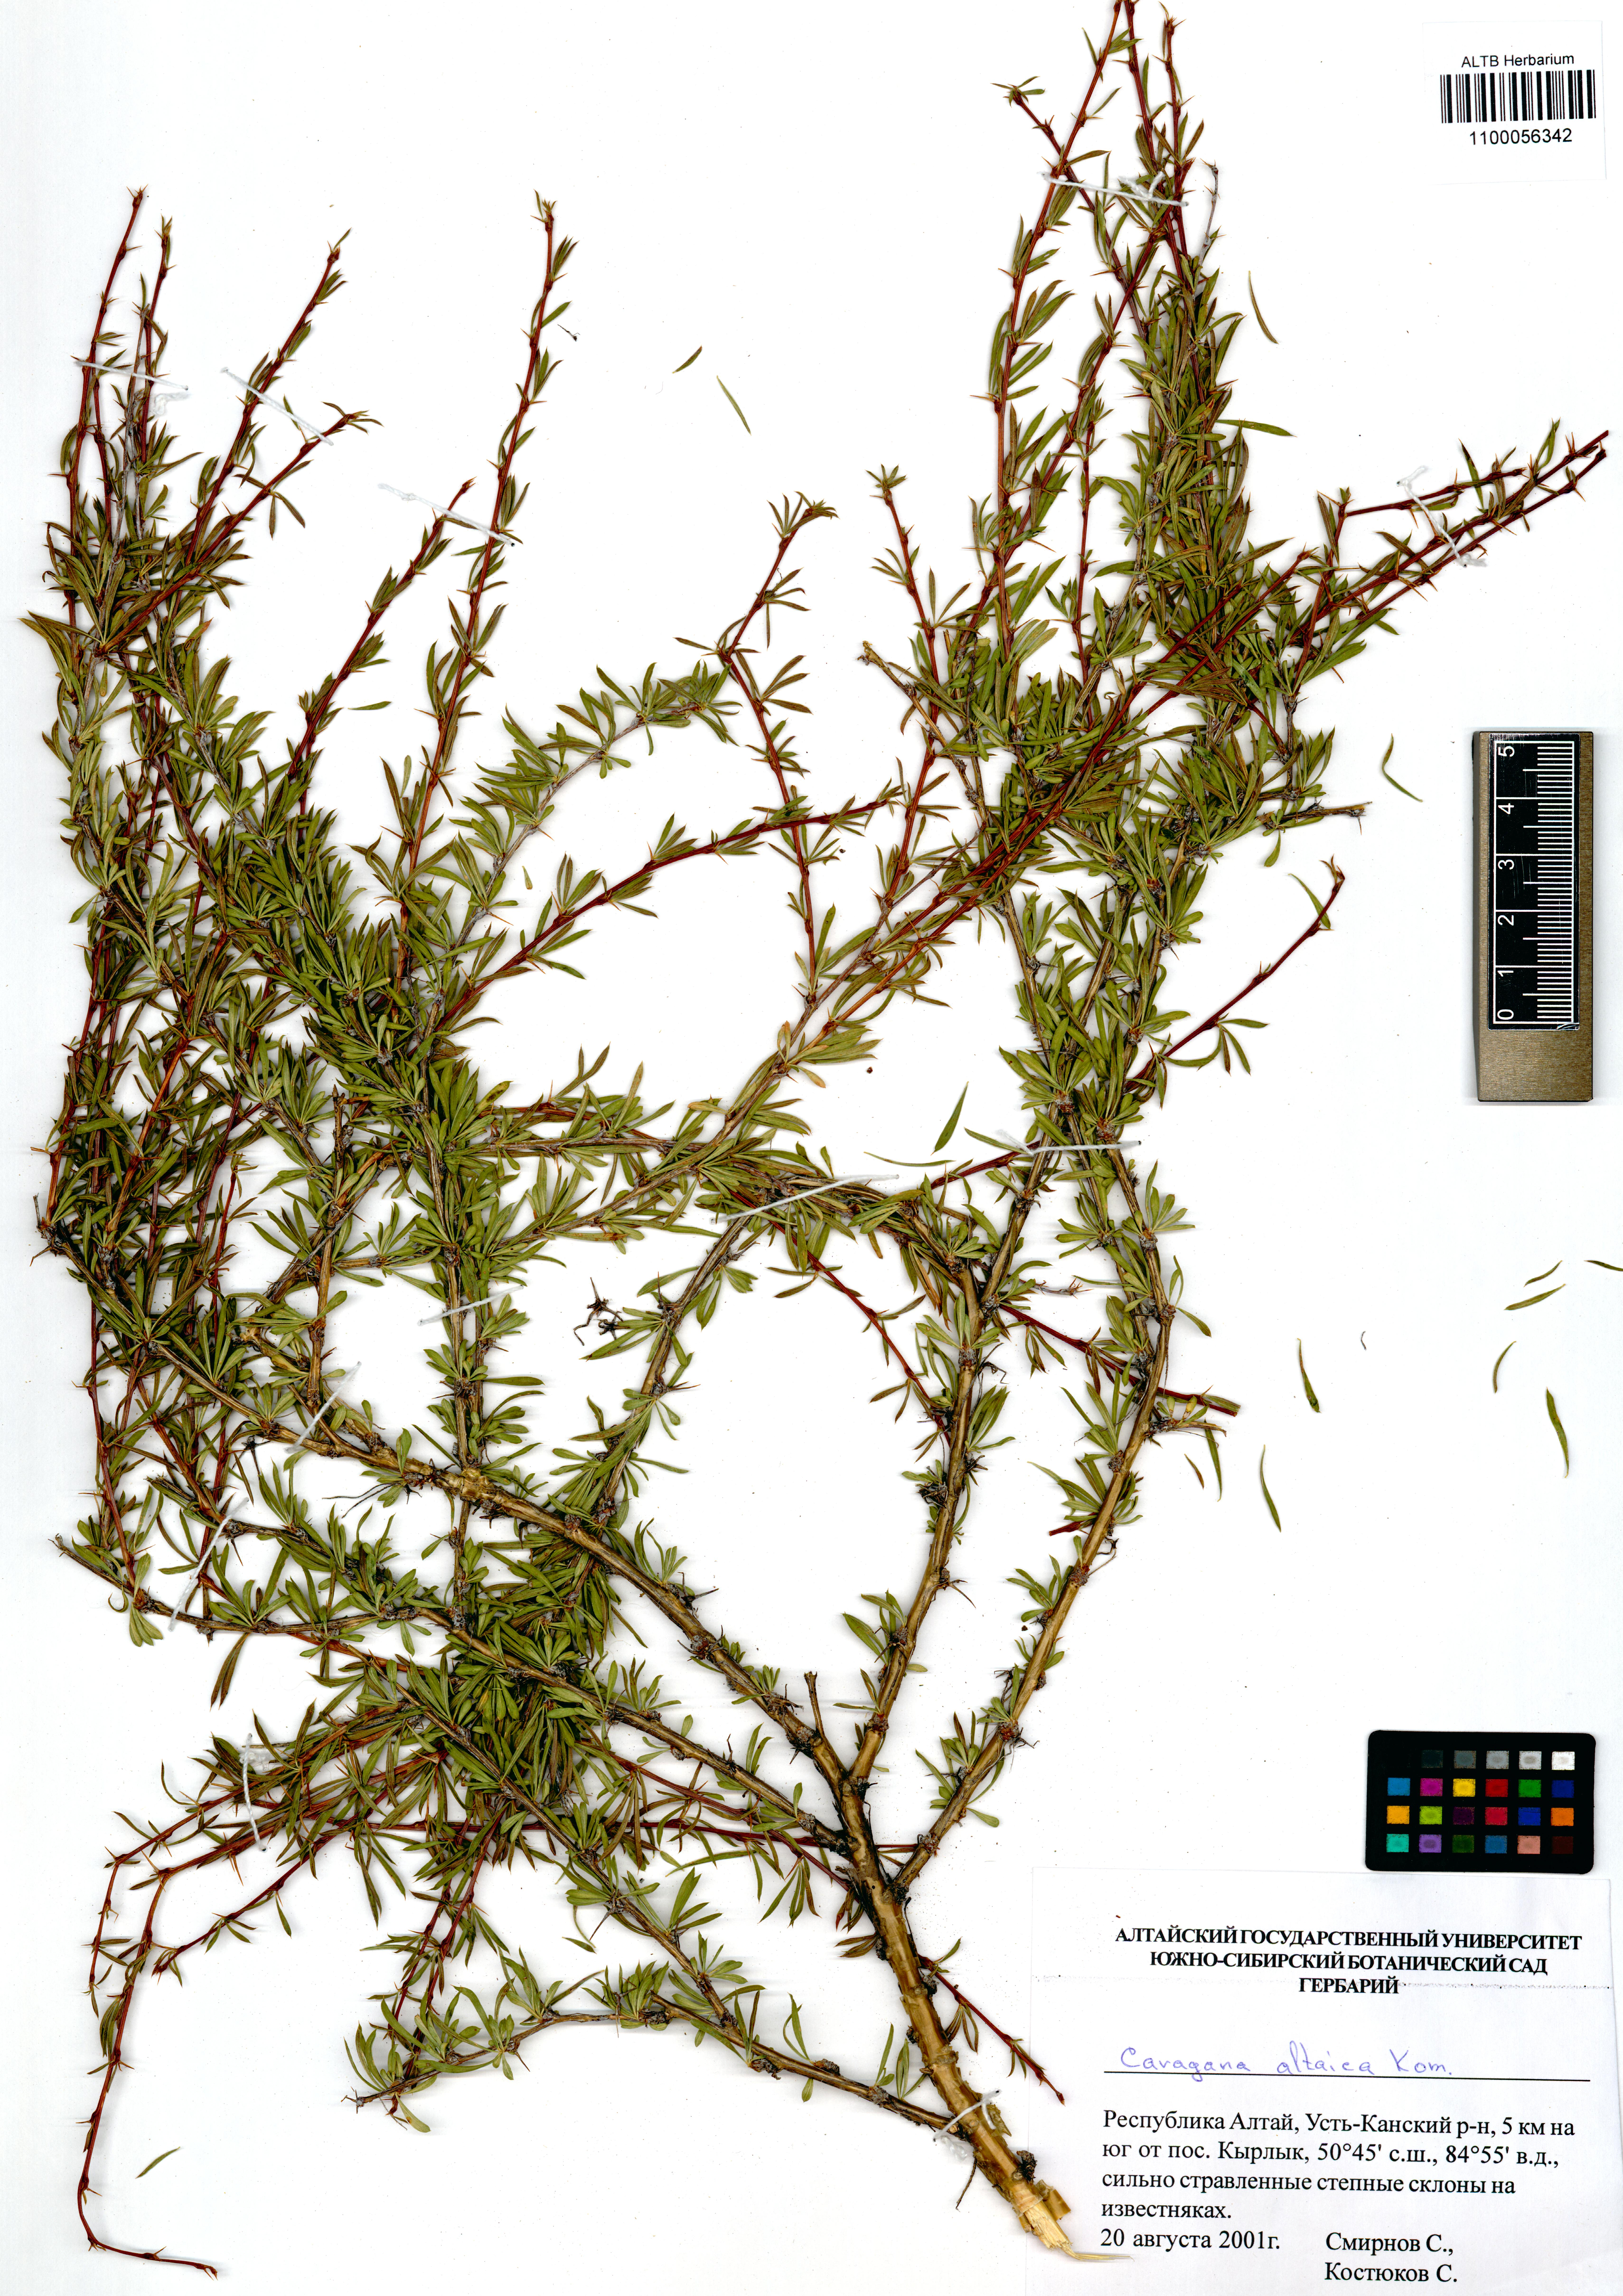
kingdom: Plantae
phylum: Tracheophyta
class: Magnoliopsida
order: Fabales
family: Fabaceae
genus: Caragana
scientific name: Caragana pygmaea
